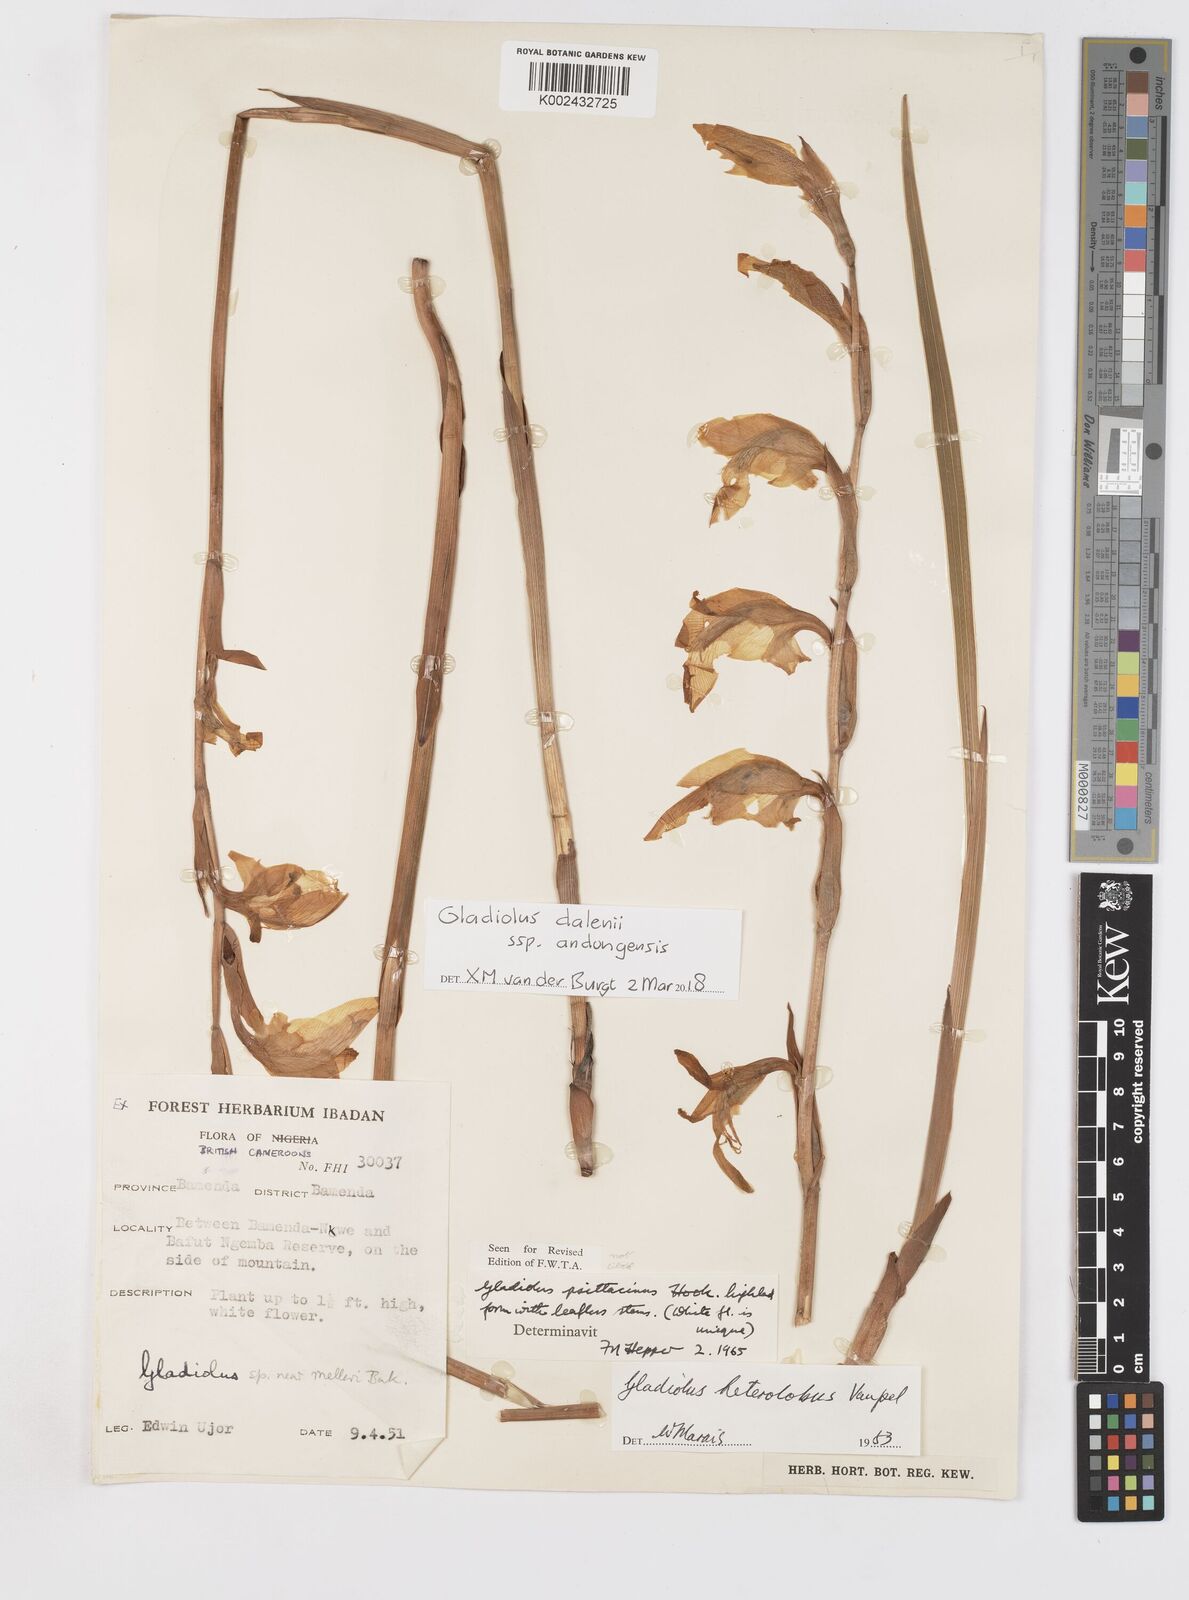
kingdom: Plantae
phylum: Tracheophyta
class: Liliopsida
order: Asparagales
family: Iridaceae
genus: Gladiolus
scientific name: Gladiolus dalenii
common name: Cornflag
